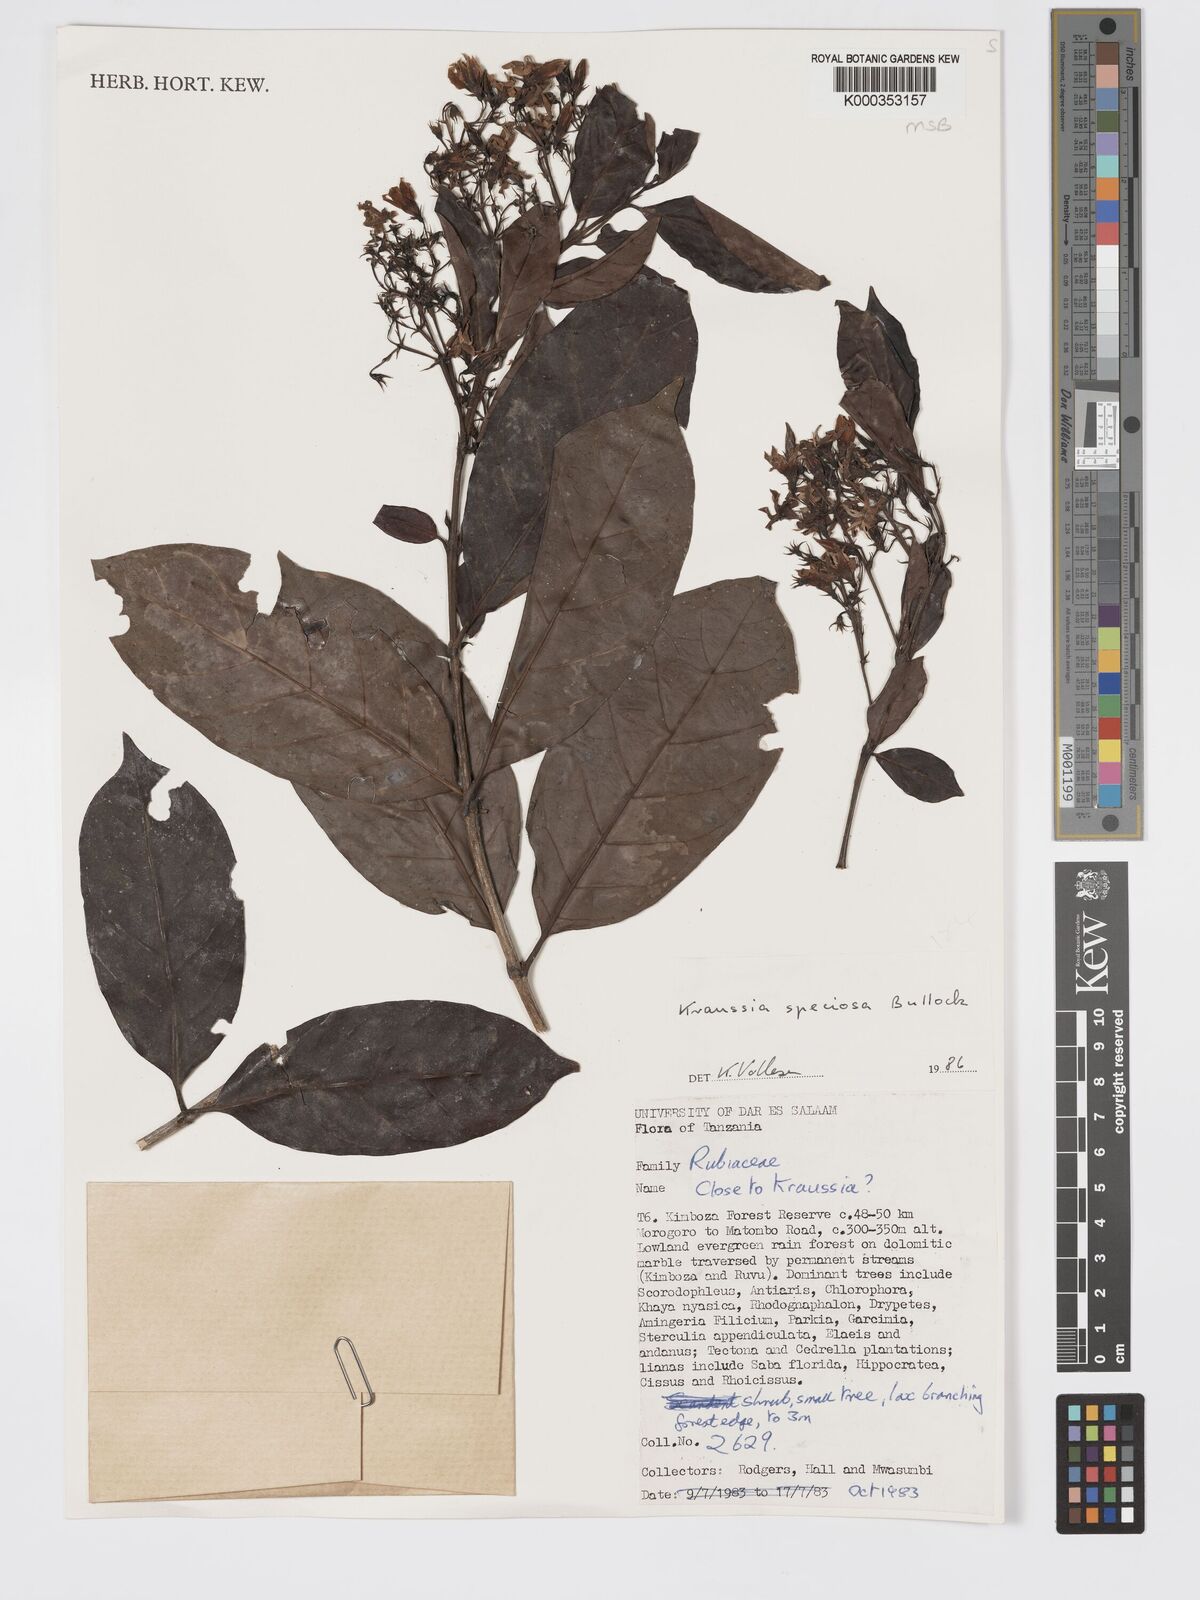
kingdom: Plantae
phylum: Tracheophyta
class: Magnoliopsida
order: Gentianales
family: Rubiaceae
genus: Kraussia
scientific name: Kraussia speciosa
